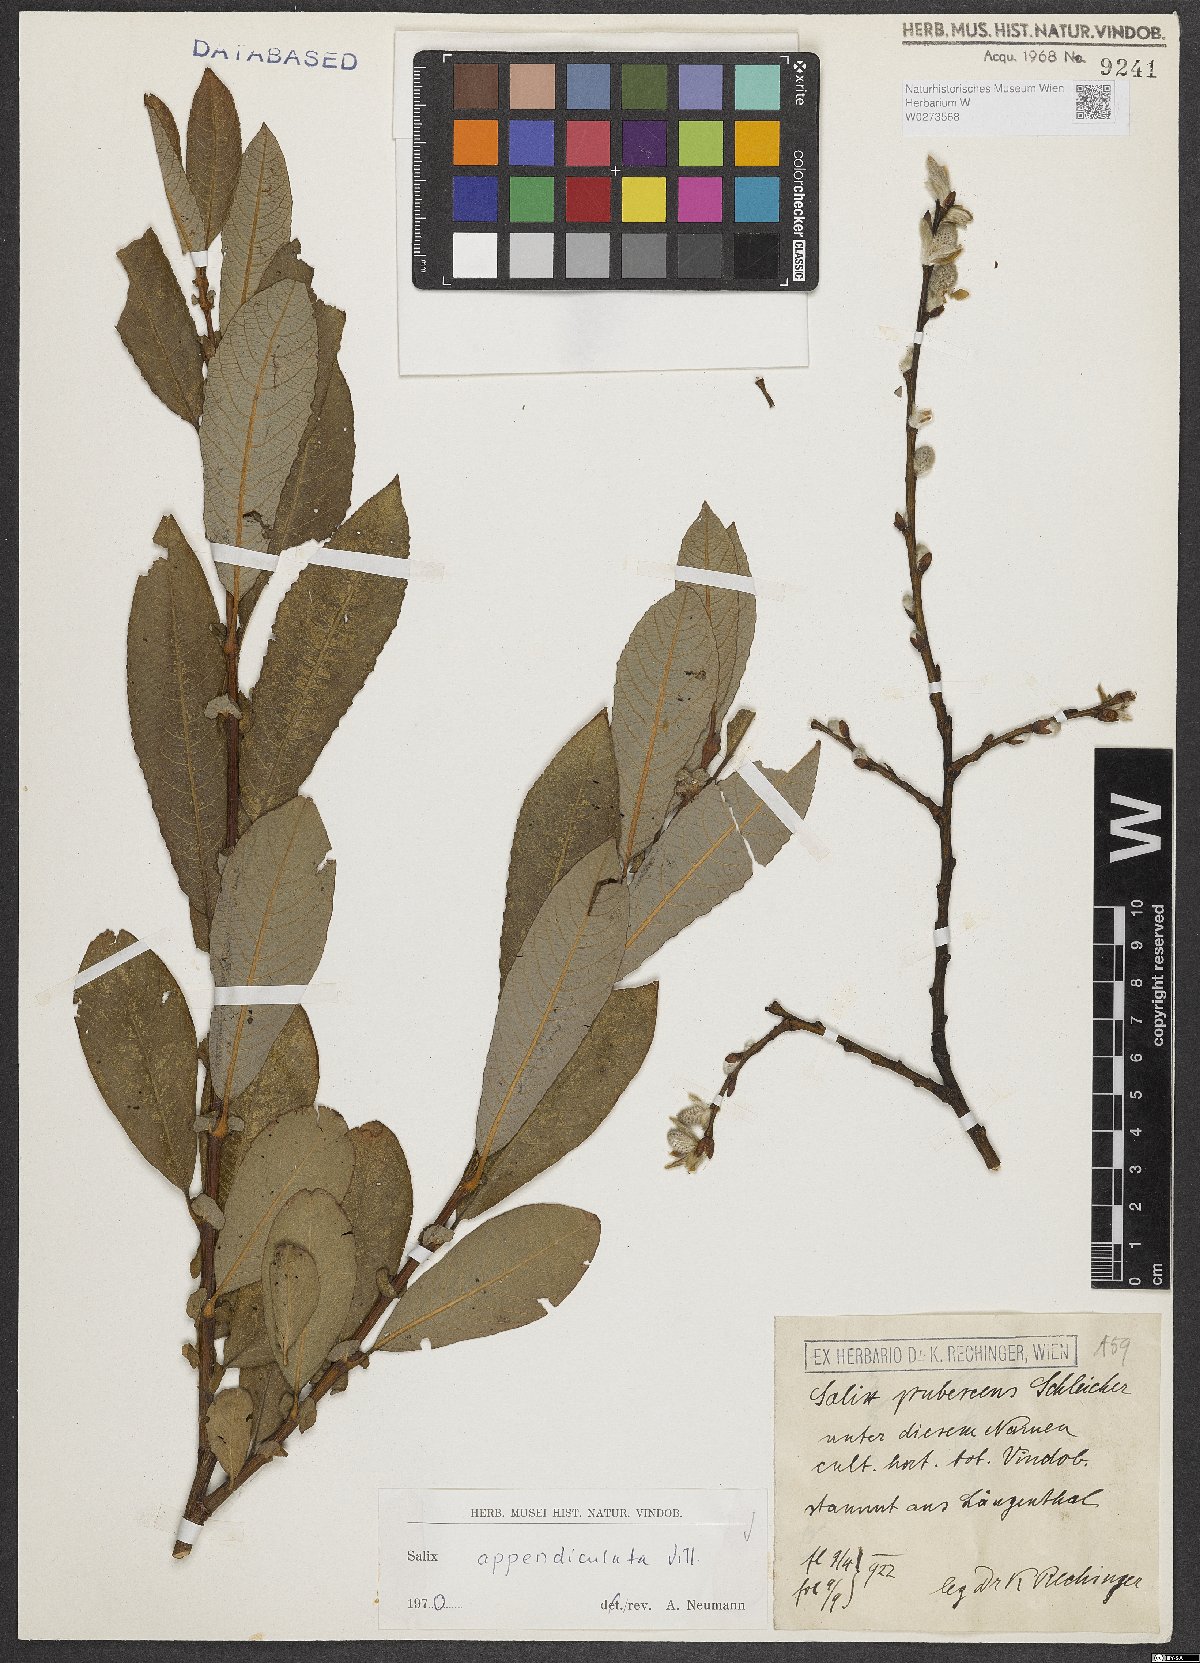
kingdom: Plantae
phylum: Tracheophyta
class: Magnoliopsida
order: Malpighiales
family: Salicaceae
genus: Salix
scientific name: Salix appendiculata
